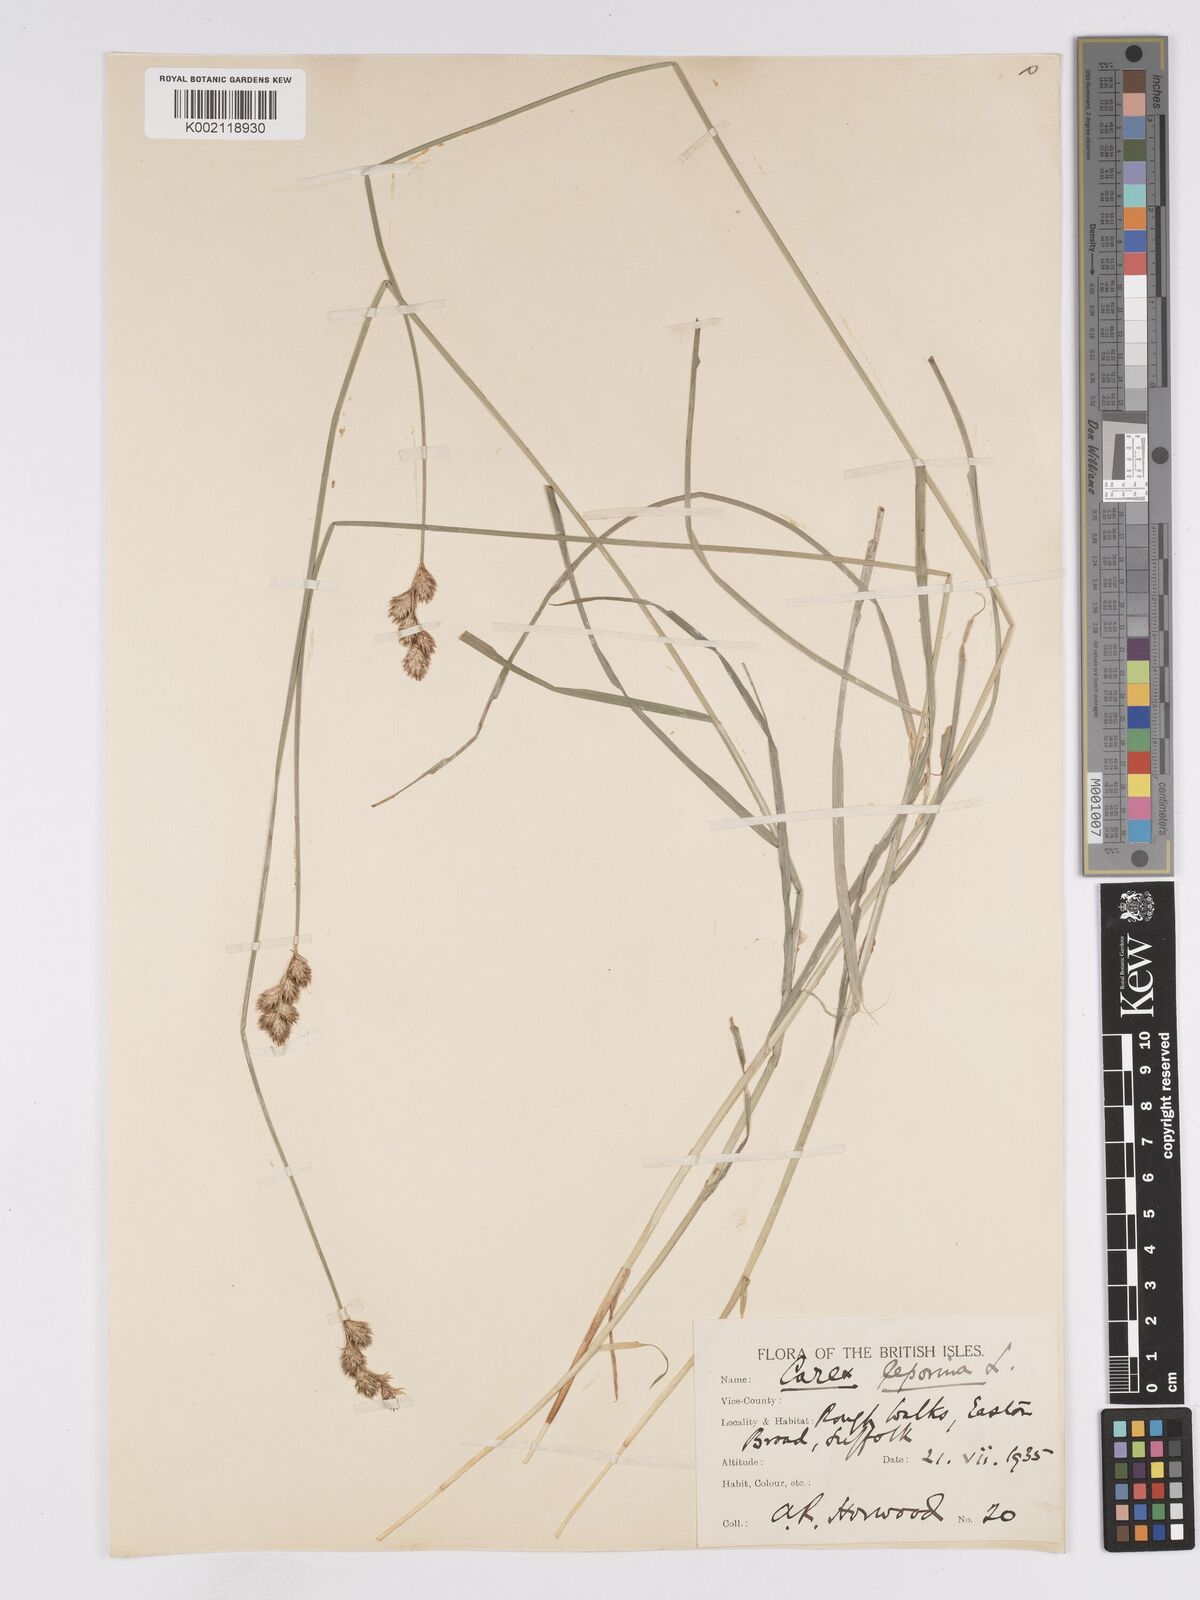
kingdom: Plantae
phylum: Tracheophyta
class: Liliopsida
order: Poales
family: Cyperaceae
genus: Carex
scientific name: Carex leporina
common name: Oval sedge
